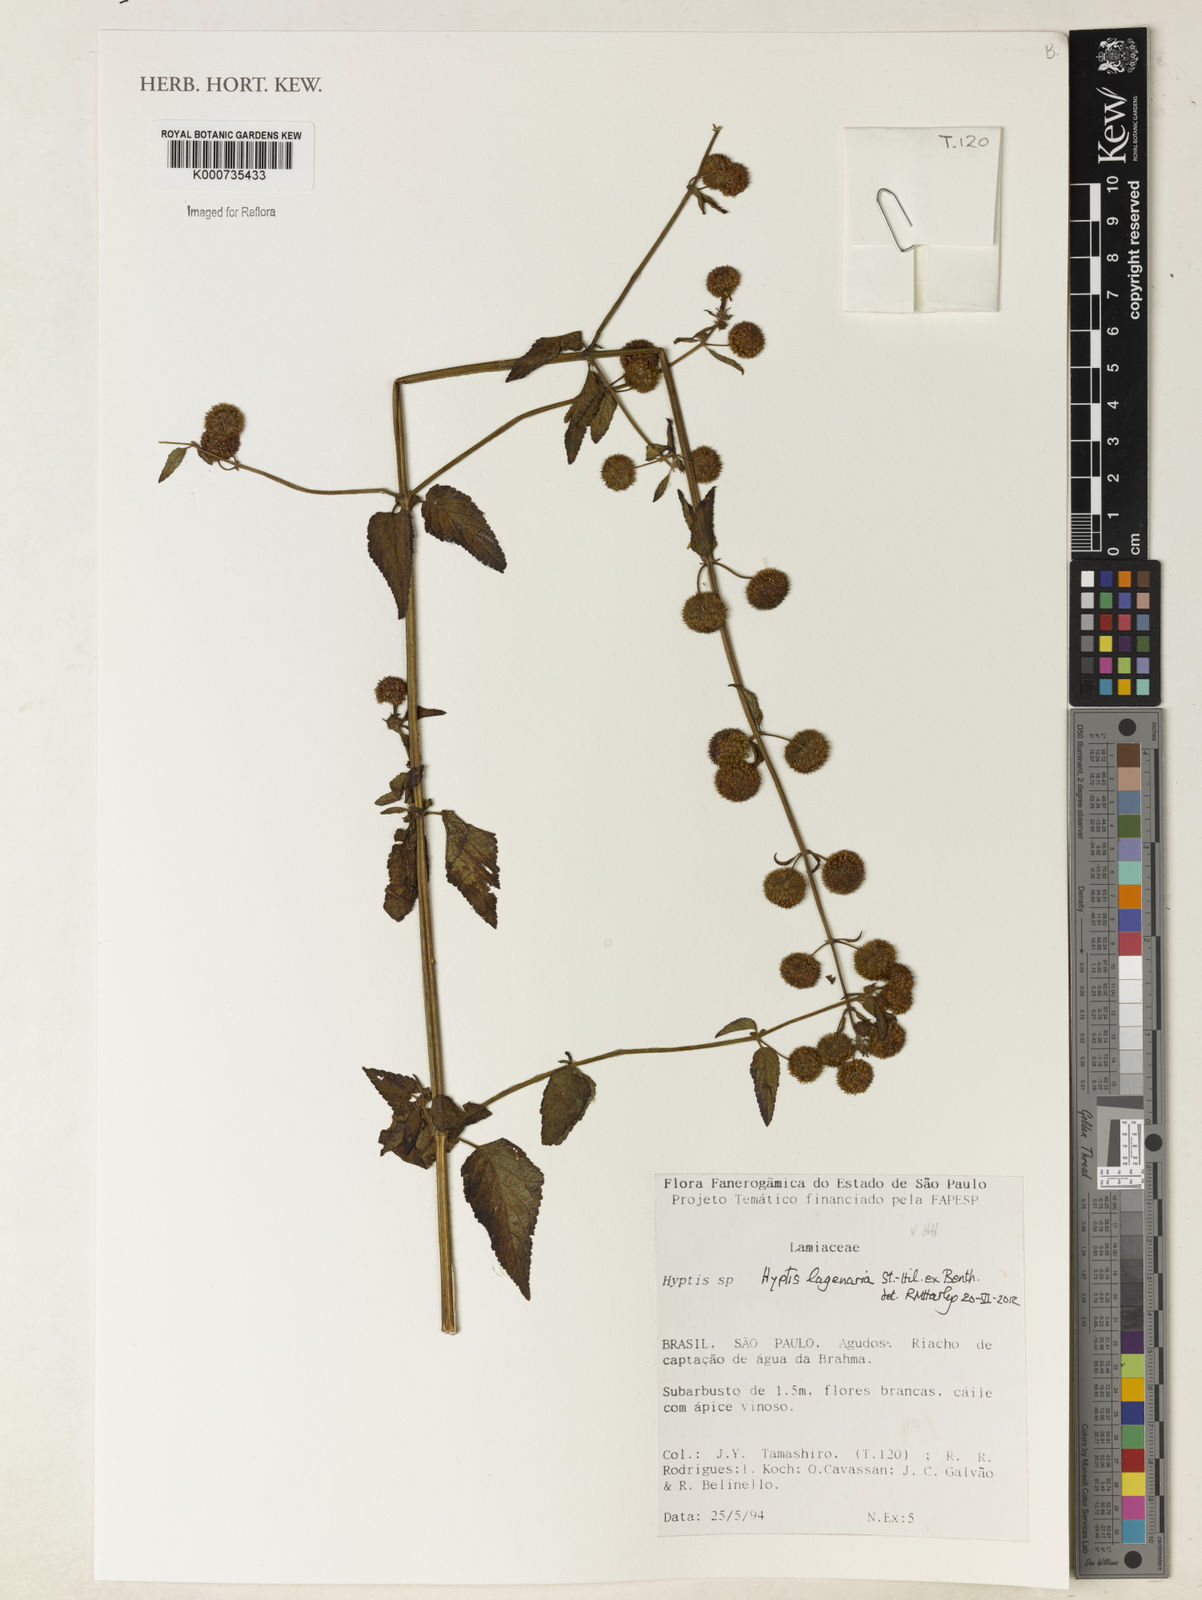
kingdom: Plantae
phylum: Tracheophyta
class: Magnoliopsida
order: Lamiales
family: Lamiaceae
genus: Hyptis
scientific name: Hyptis lagenaria
